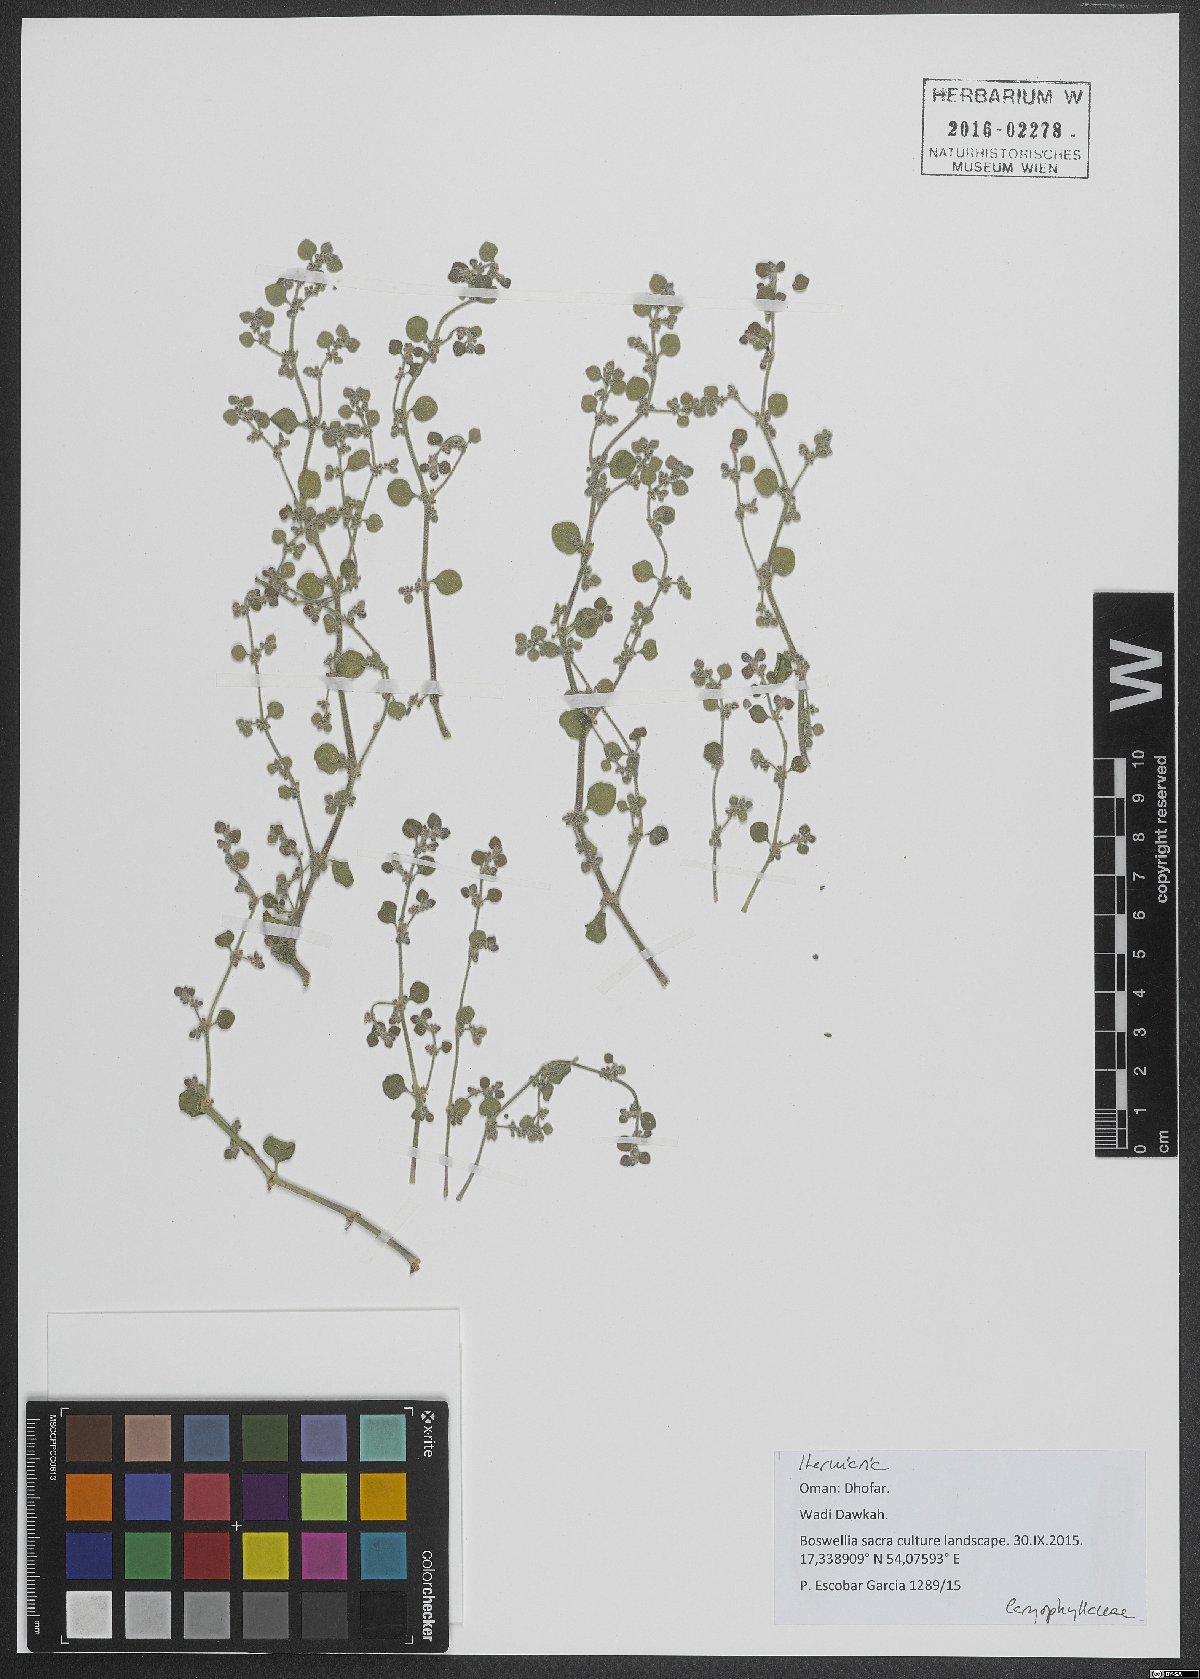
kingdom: Plantae
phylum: Tracheophyta
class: Magnoliopsida
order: Caryophyllales
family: Caryophyllaceae
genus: Herniaria
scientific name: Herniaria
